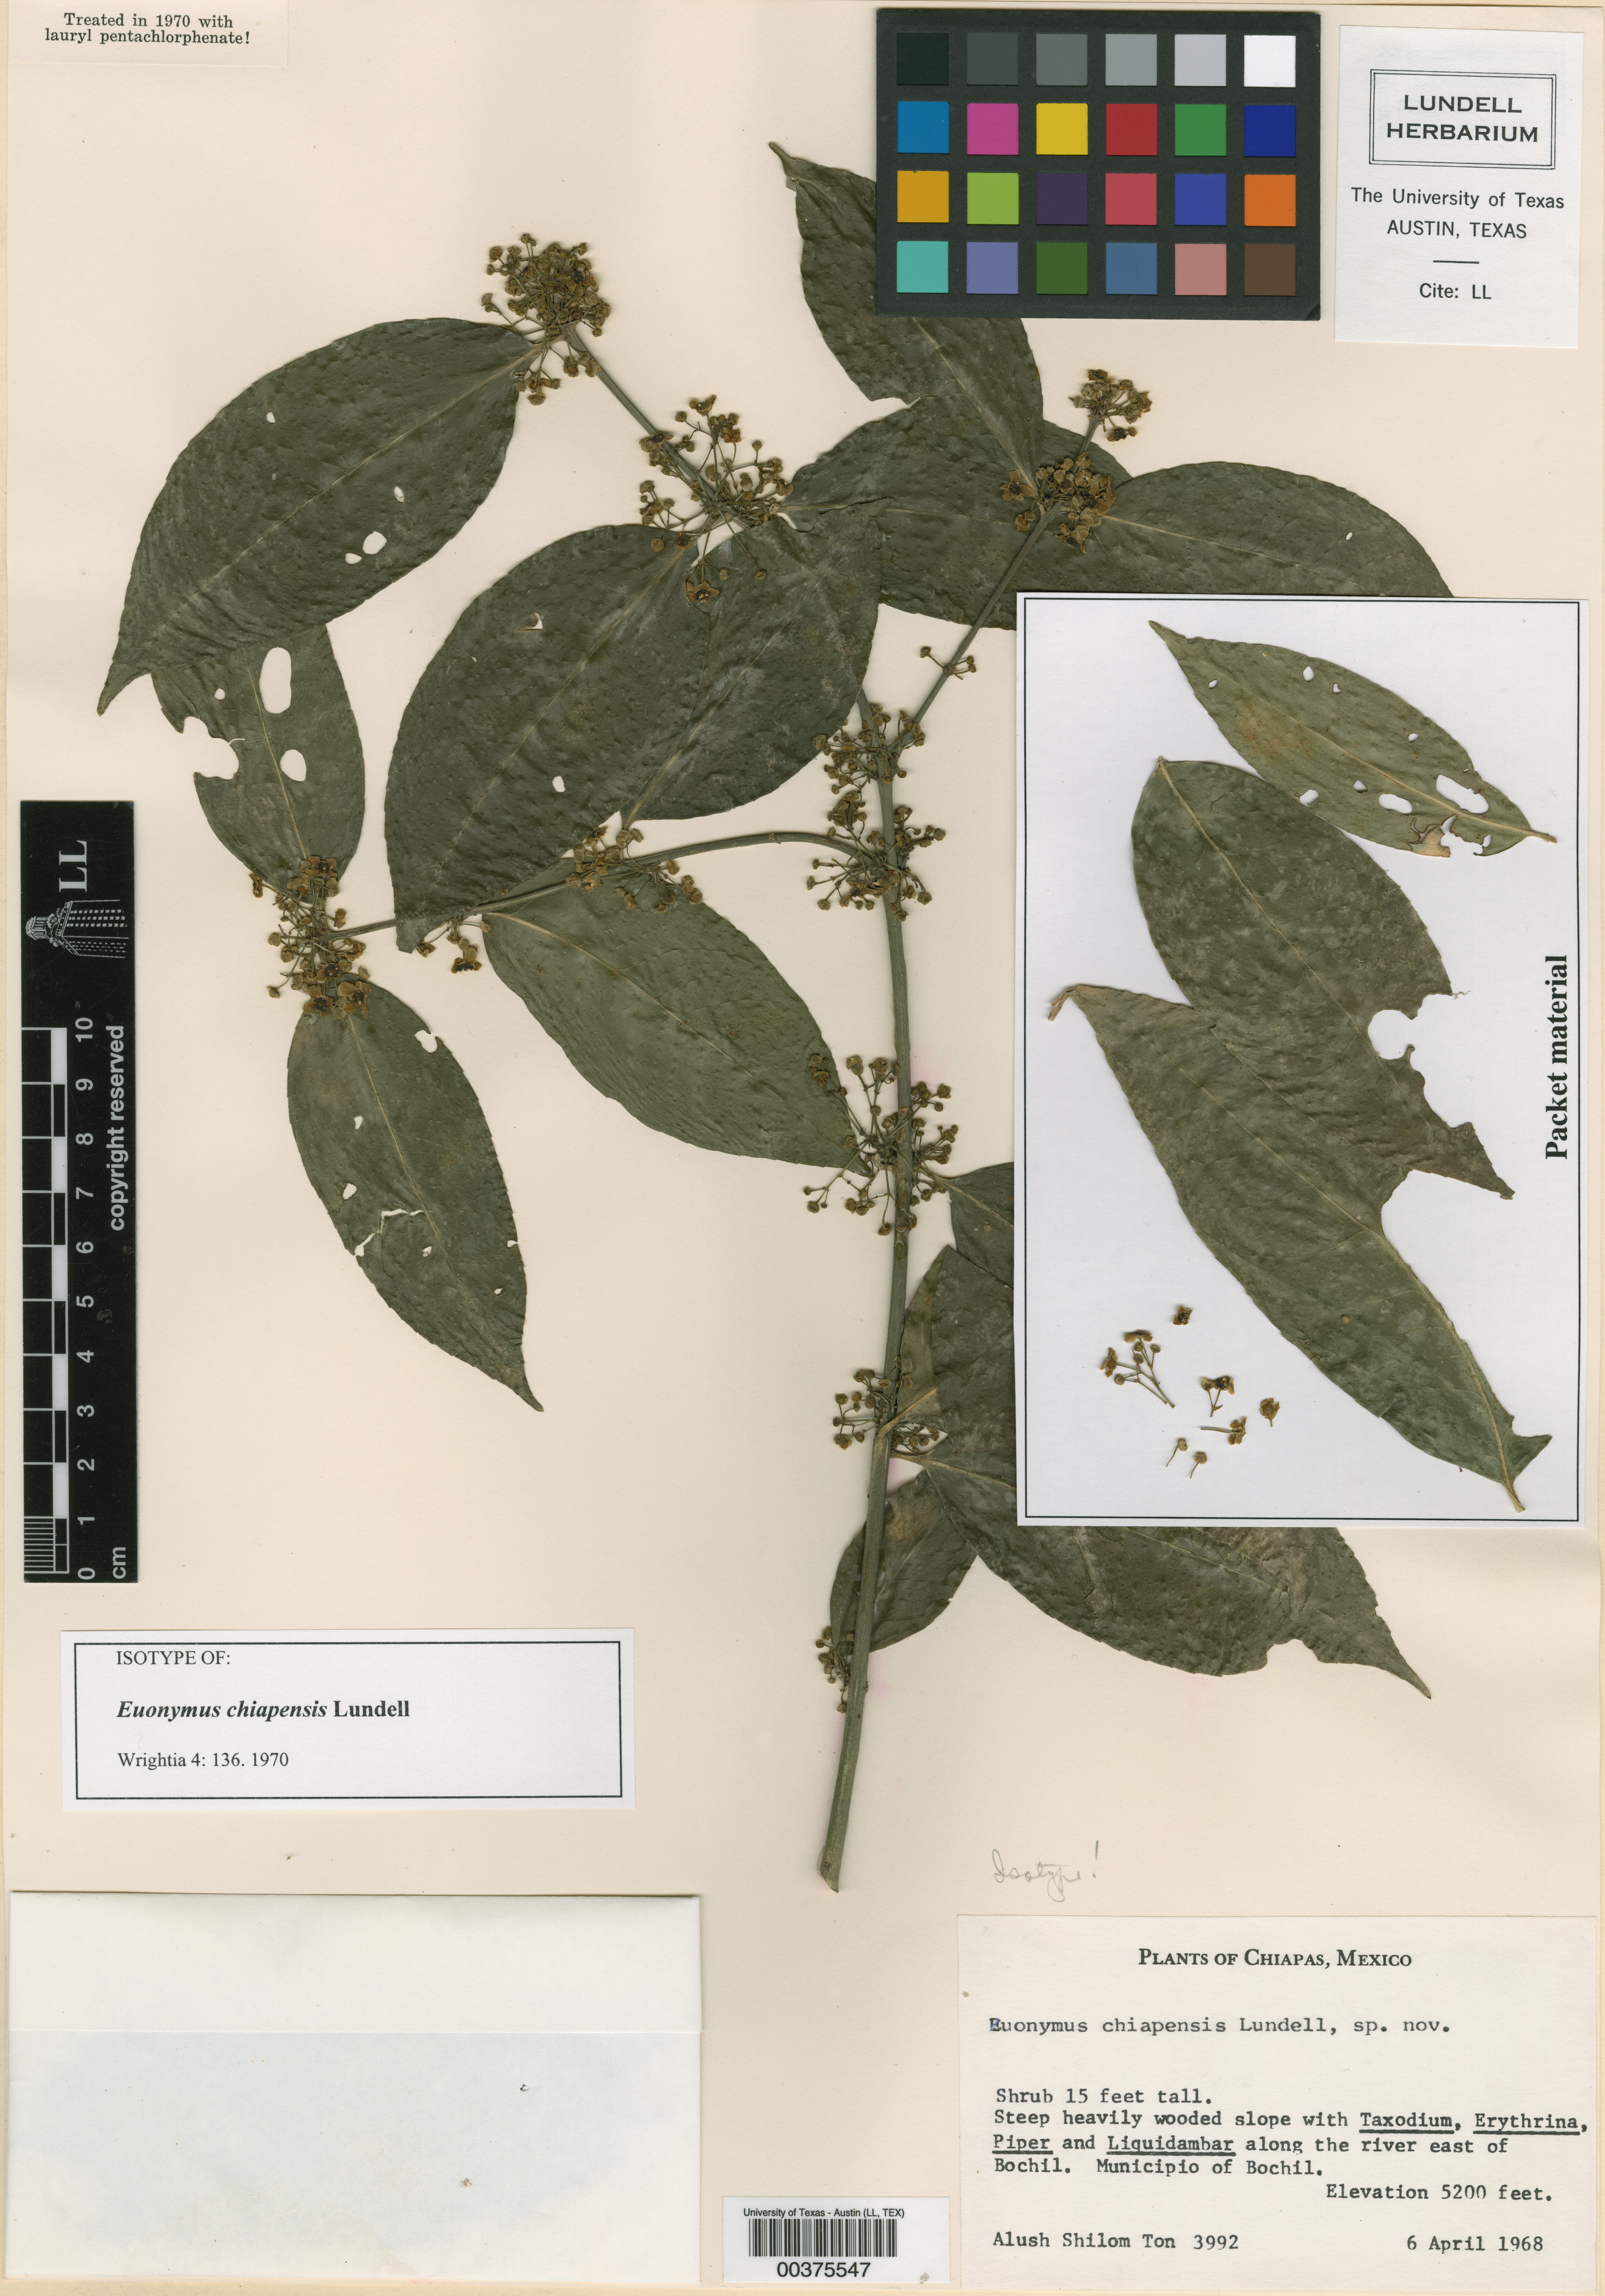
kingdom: Plantae
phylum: Tracheophyta
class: Magnoliopsida
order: Celastrales
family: Celastraceae
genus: Euonymus
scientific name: Euonymus chiapensis
